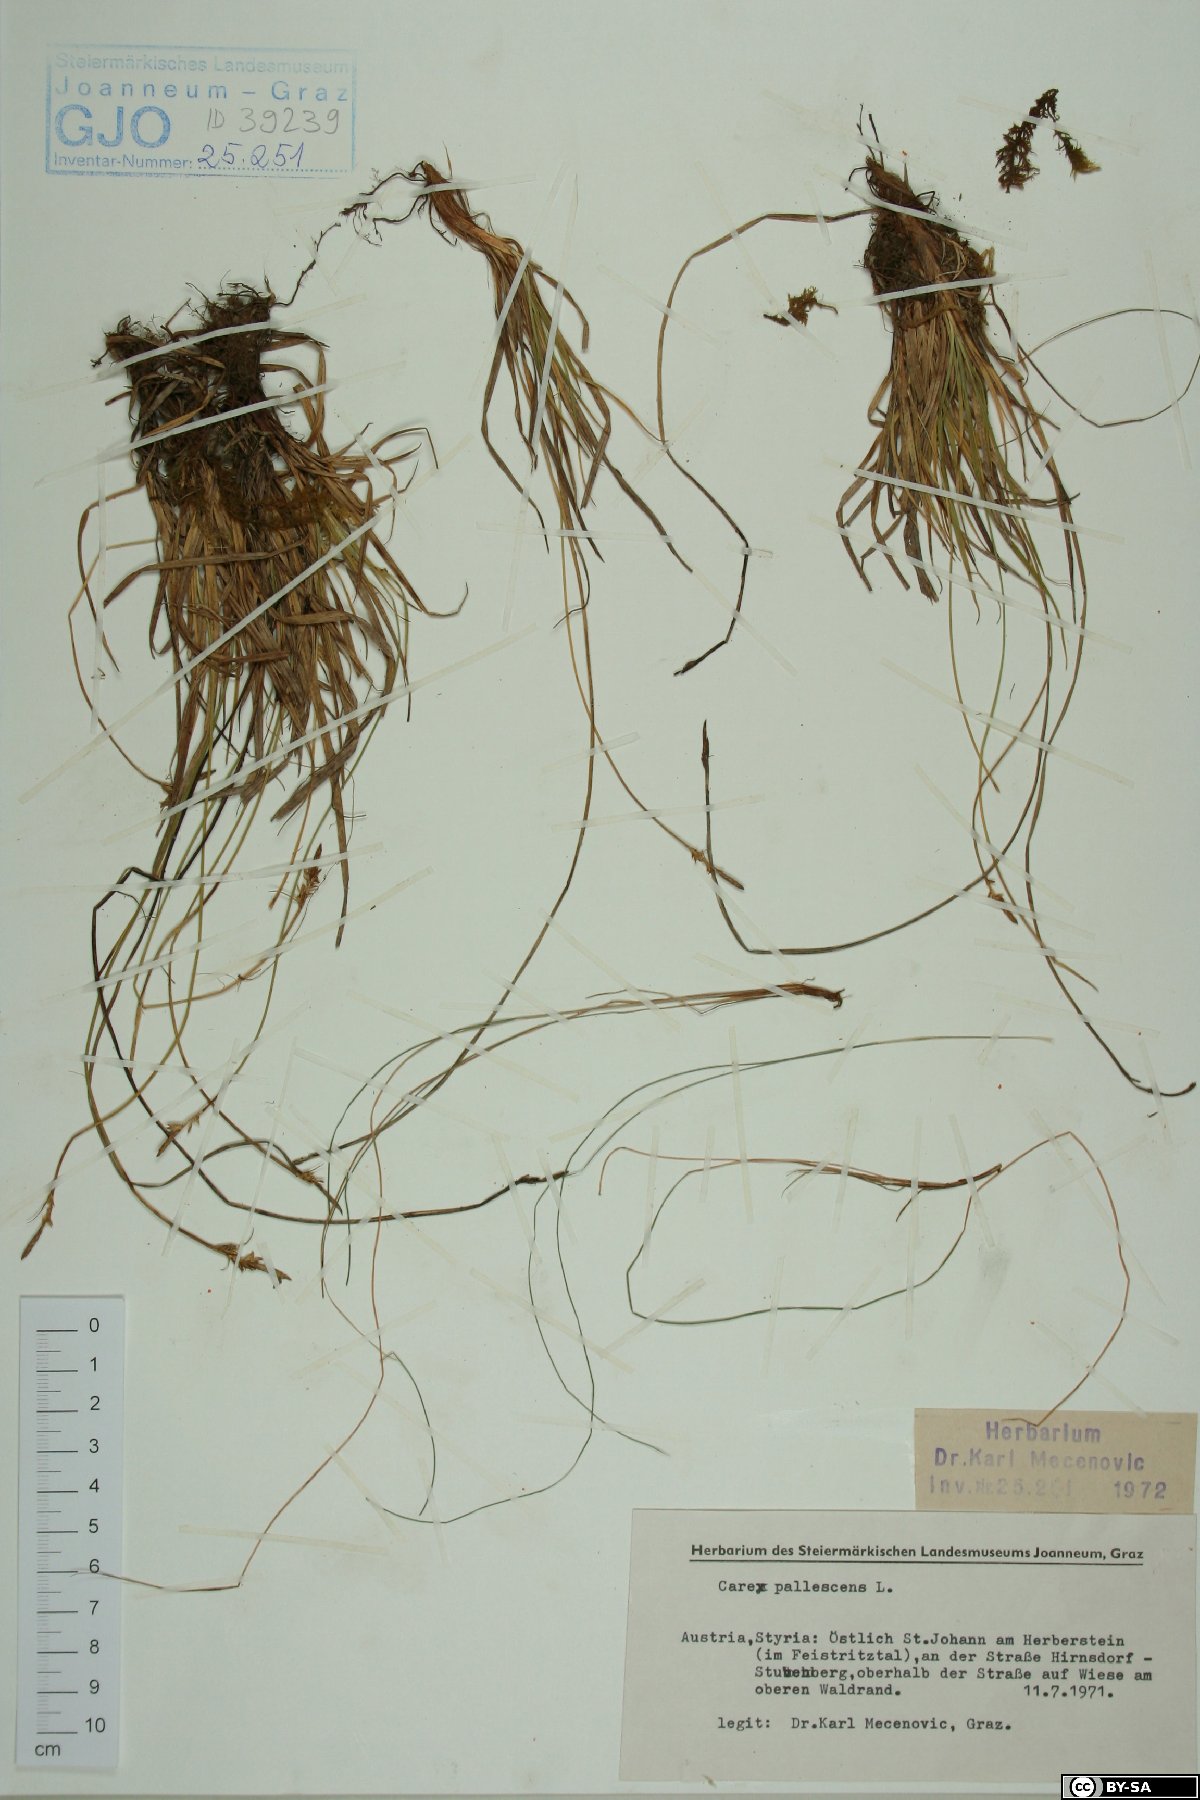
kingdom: Plantae
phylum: Tracheophyta
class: Liliopsida
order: Poales
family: Cyperaceae
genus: Carex
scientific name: Carex pallescens
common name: Pale sedge
